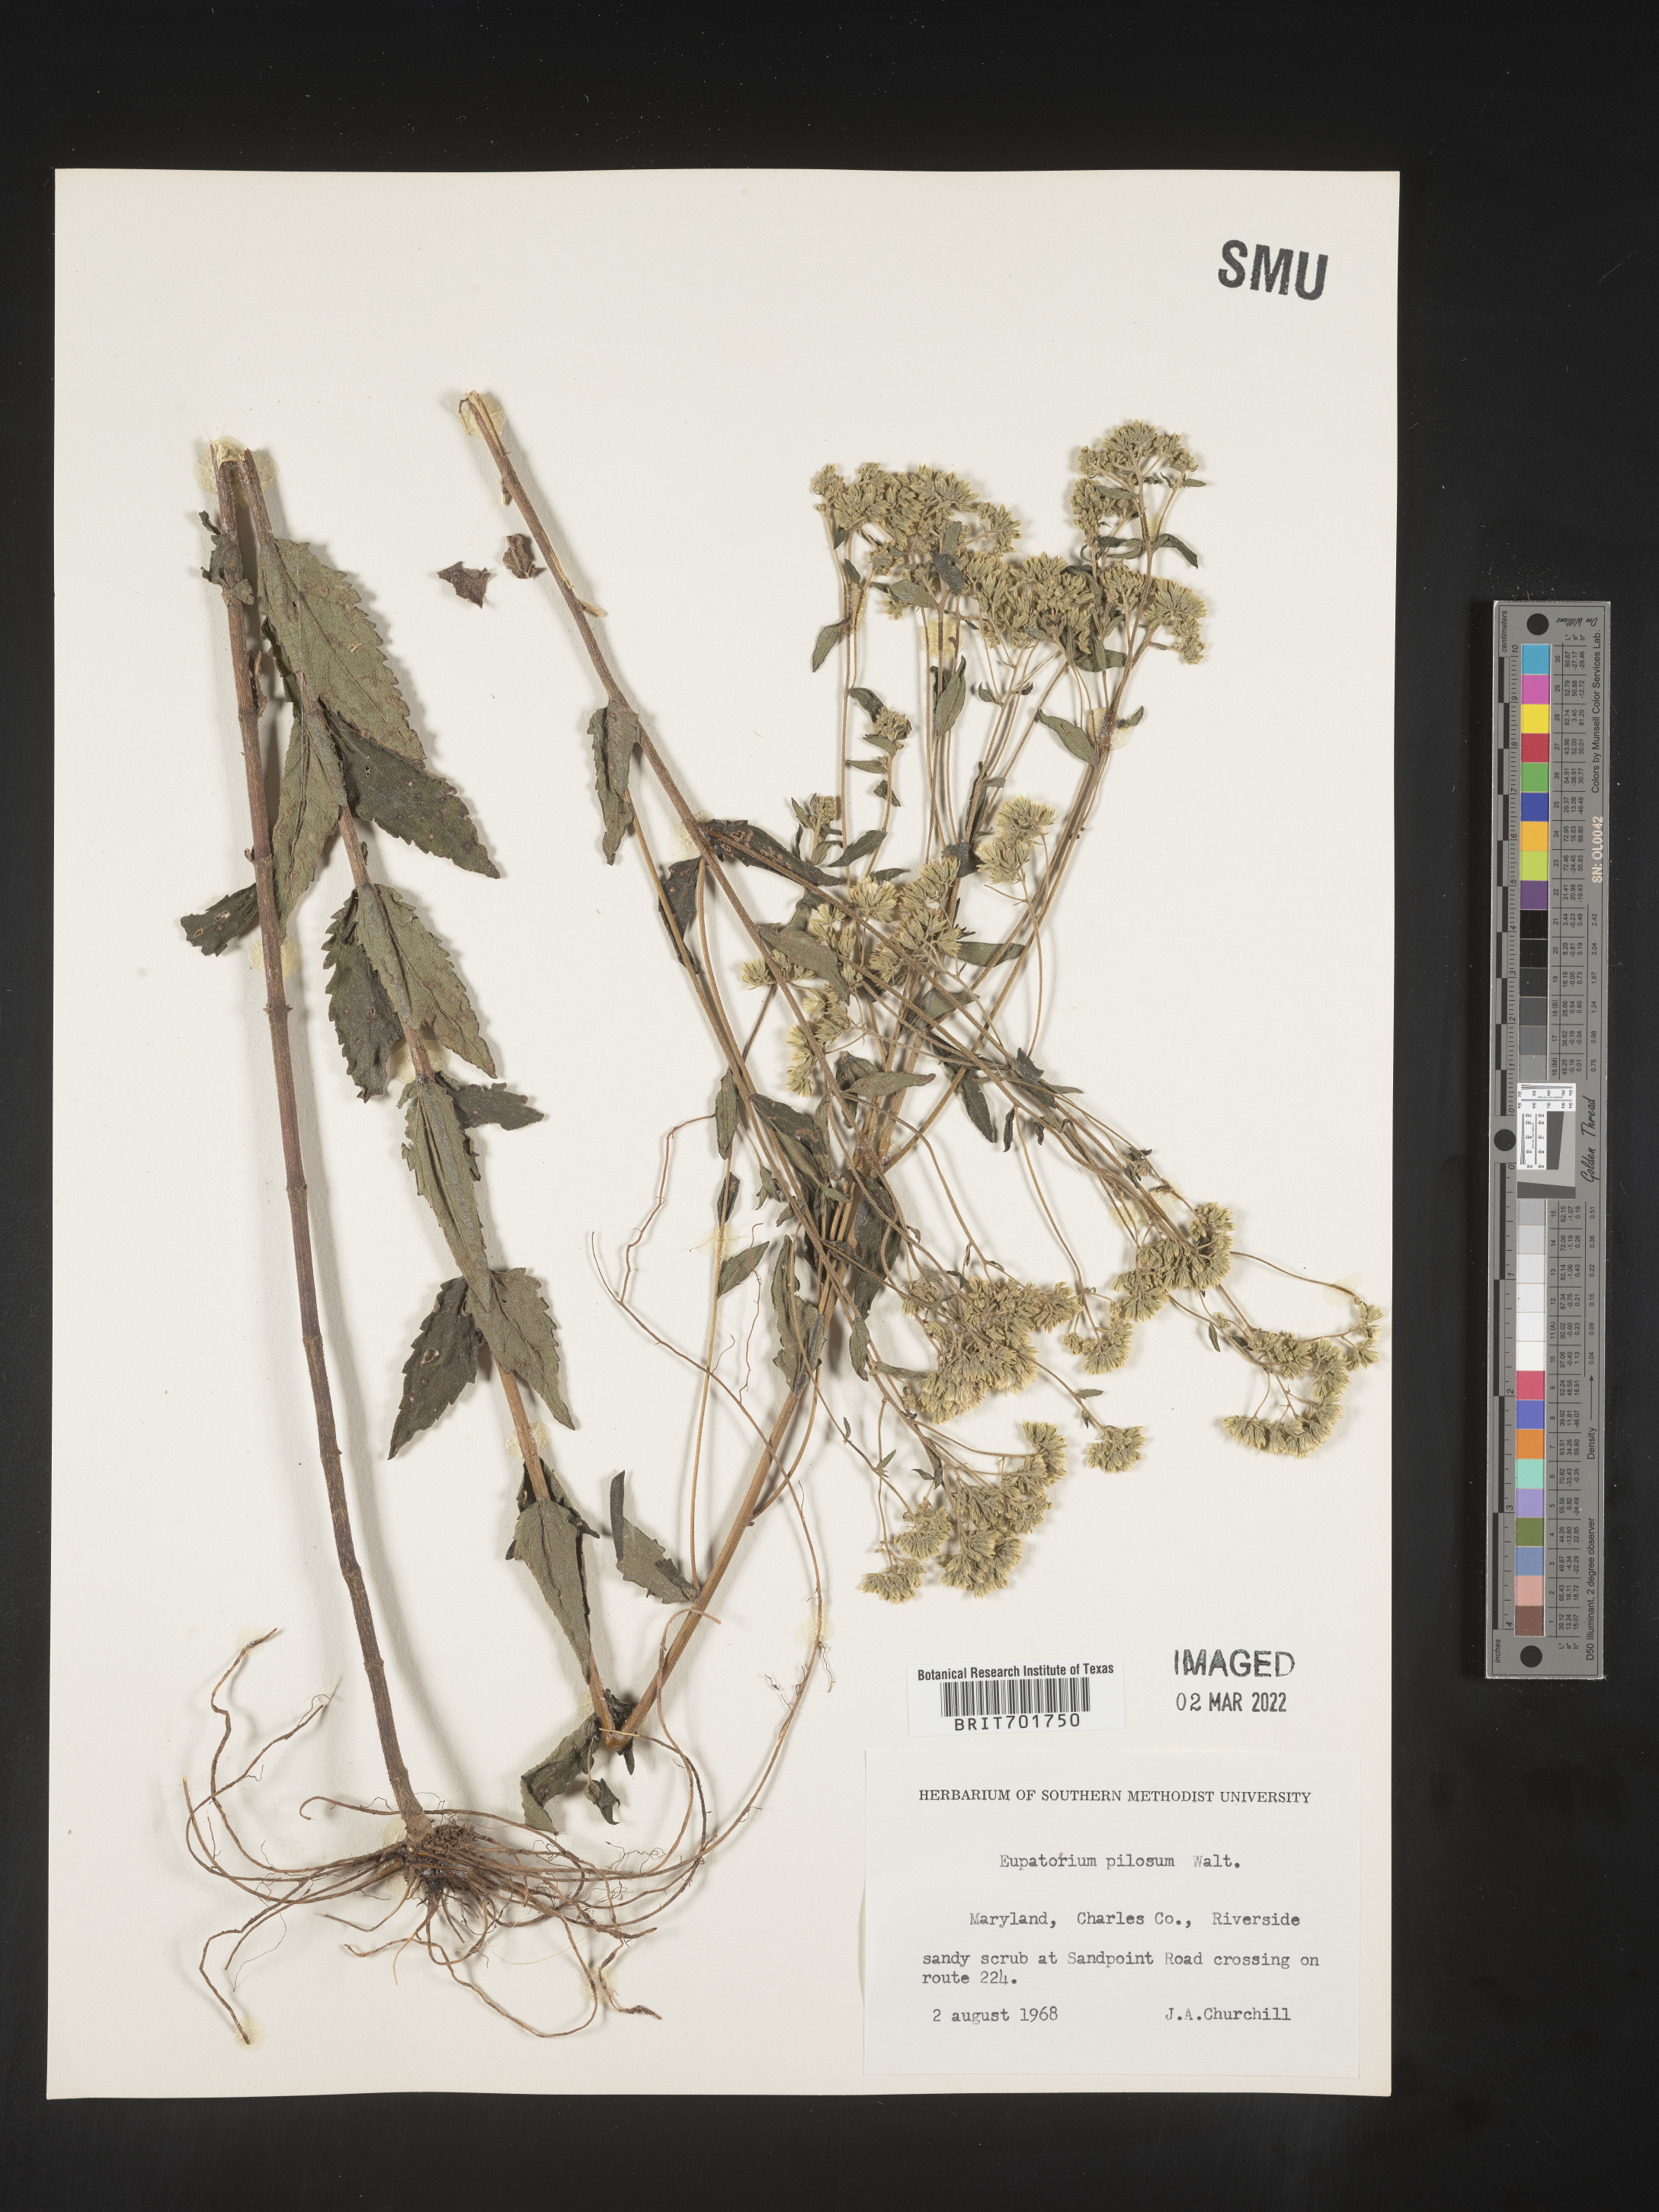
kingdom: Plantae
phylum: Tracheophyta
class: Magnoliopsida
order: Asterales
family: Asteraceae
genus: Eupatorium
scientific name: Eupatorium pilosum
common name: Rough boneset
